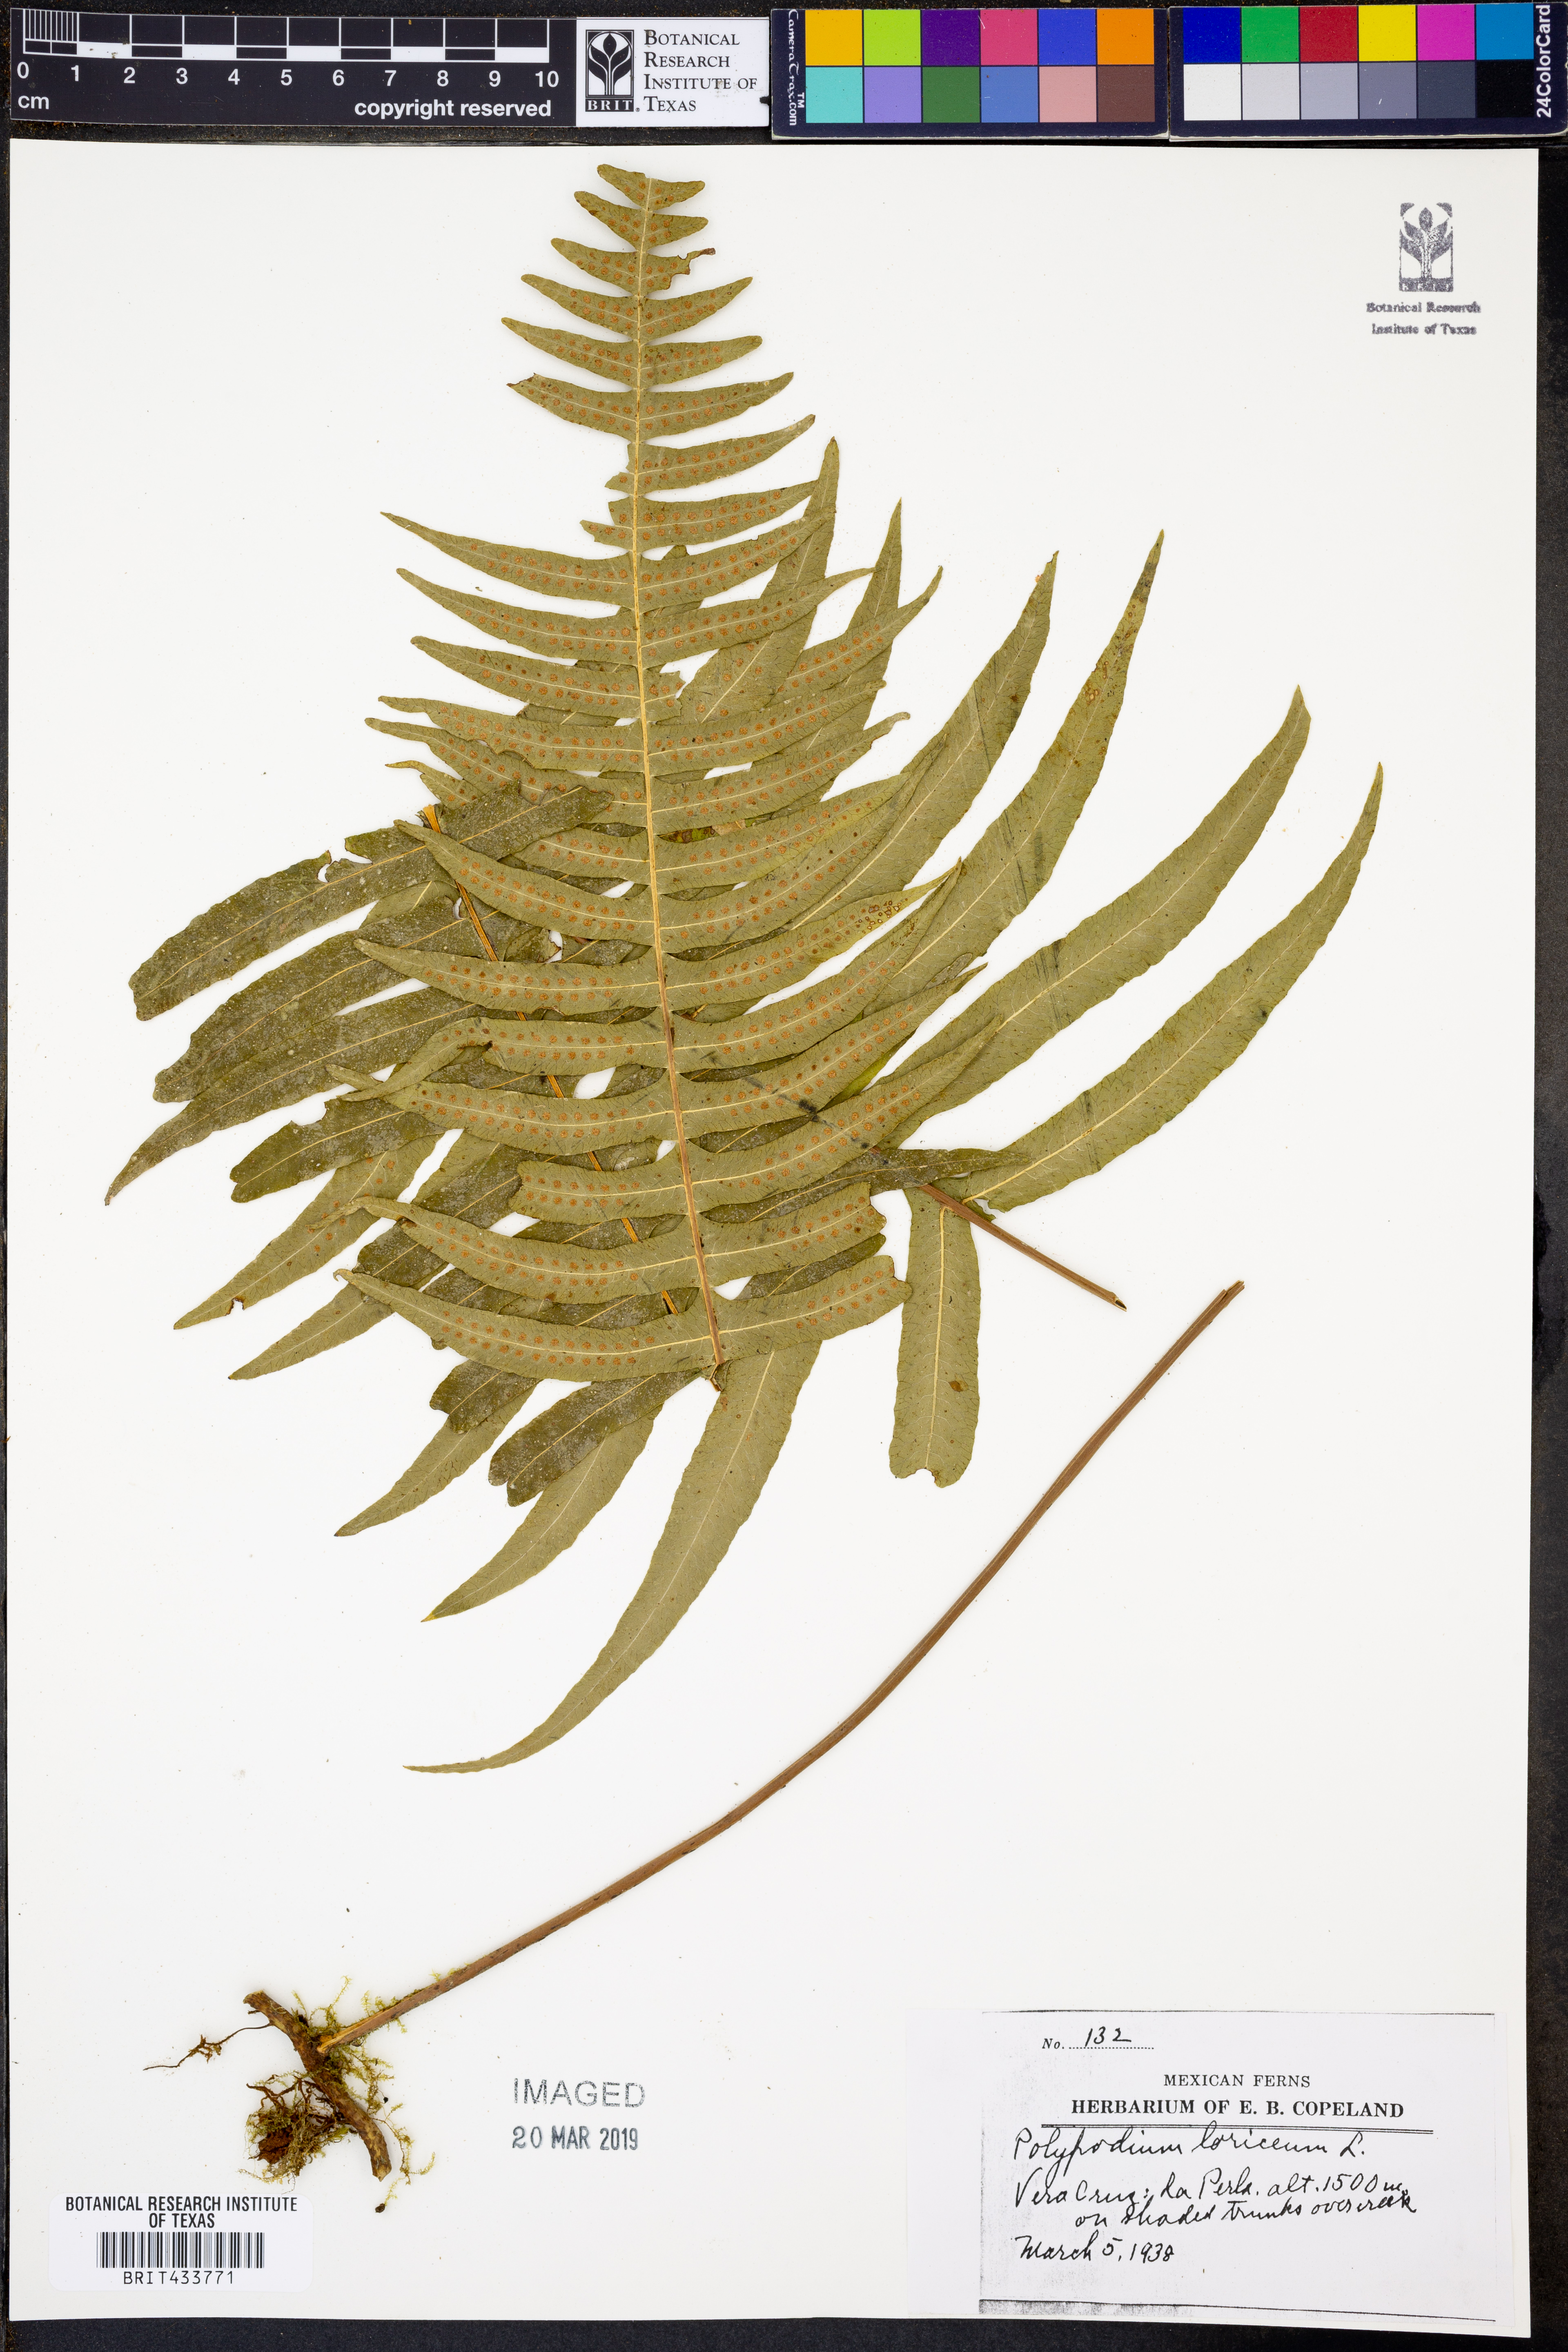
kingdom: Plantae
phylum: Tracheophyta
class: Polypodiopsida
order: Polypodiales
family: Polypodiaceae
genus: Serpocaulon
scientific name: Serpocaulon loriceum
